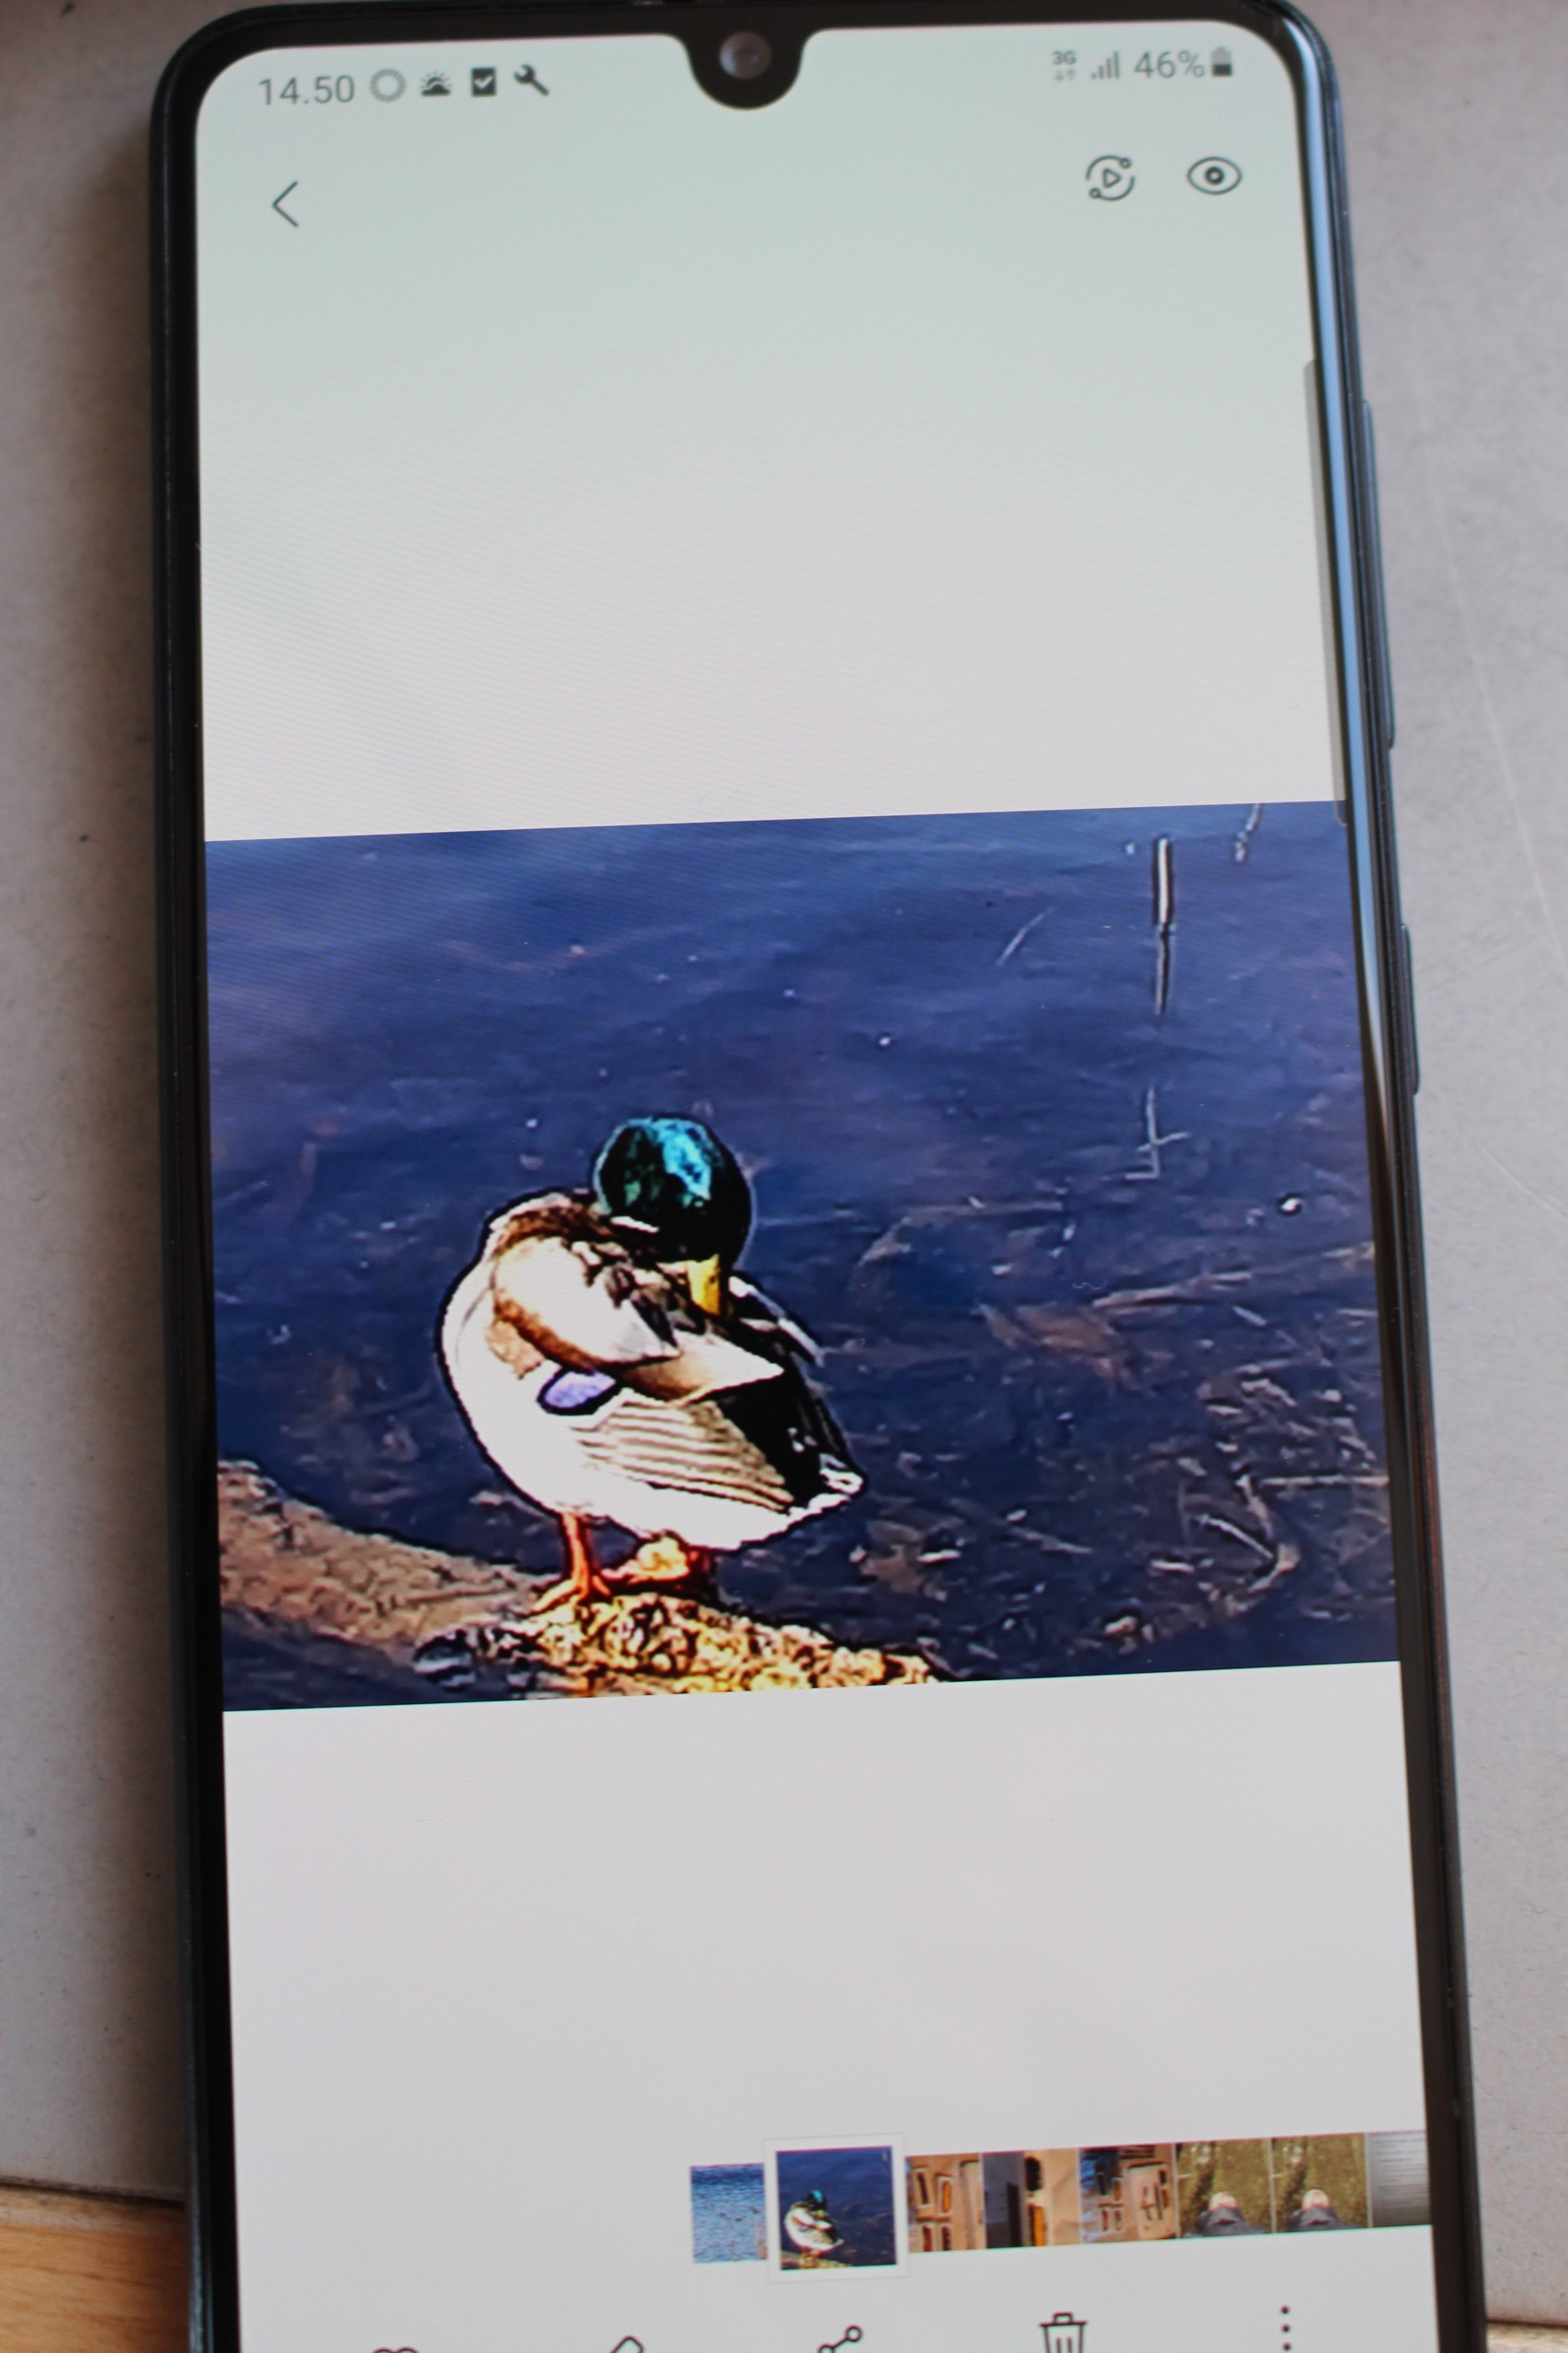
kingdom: Animalia
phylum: Chordata
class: Aves
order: Anseriformes
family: Anatidae
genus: Anas
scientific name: Anas platyrhynchos
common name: Gråand
